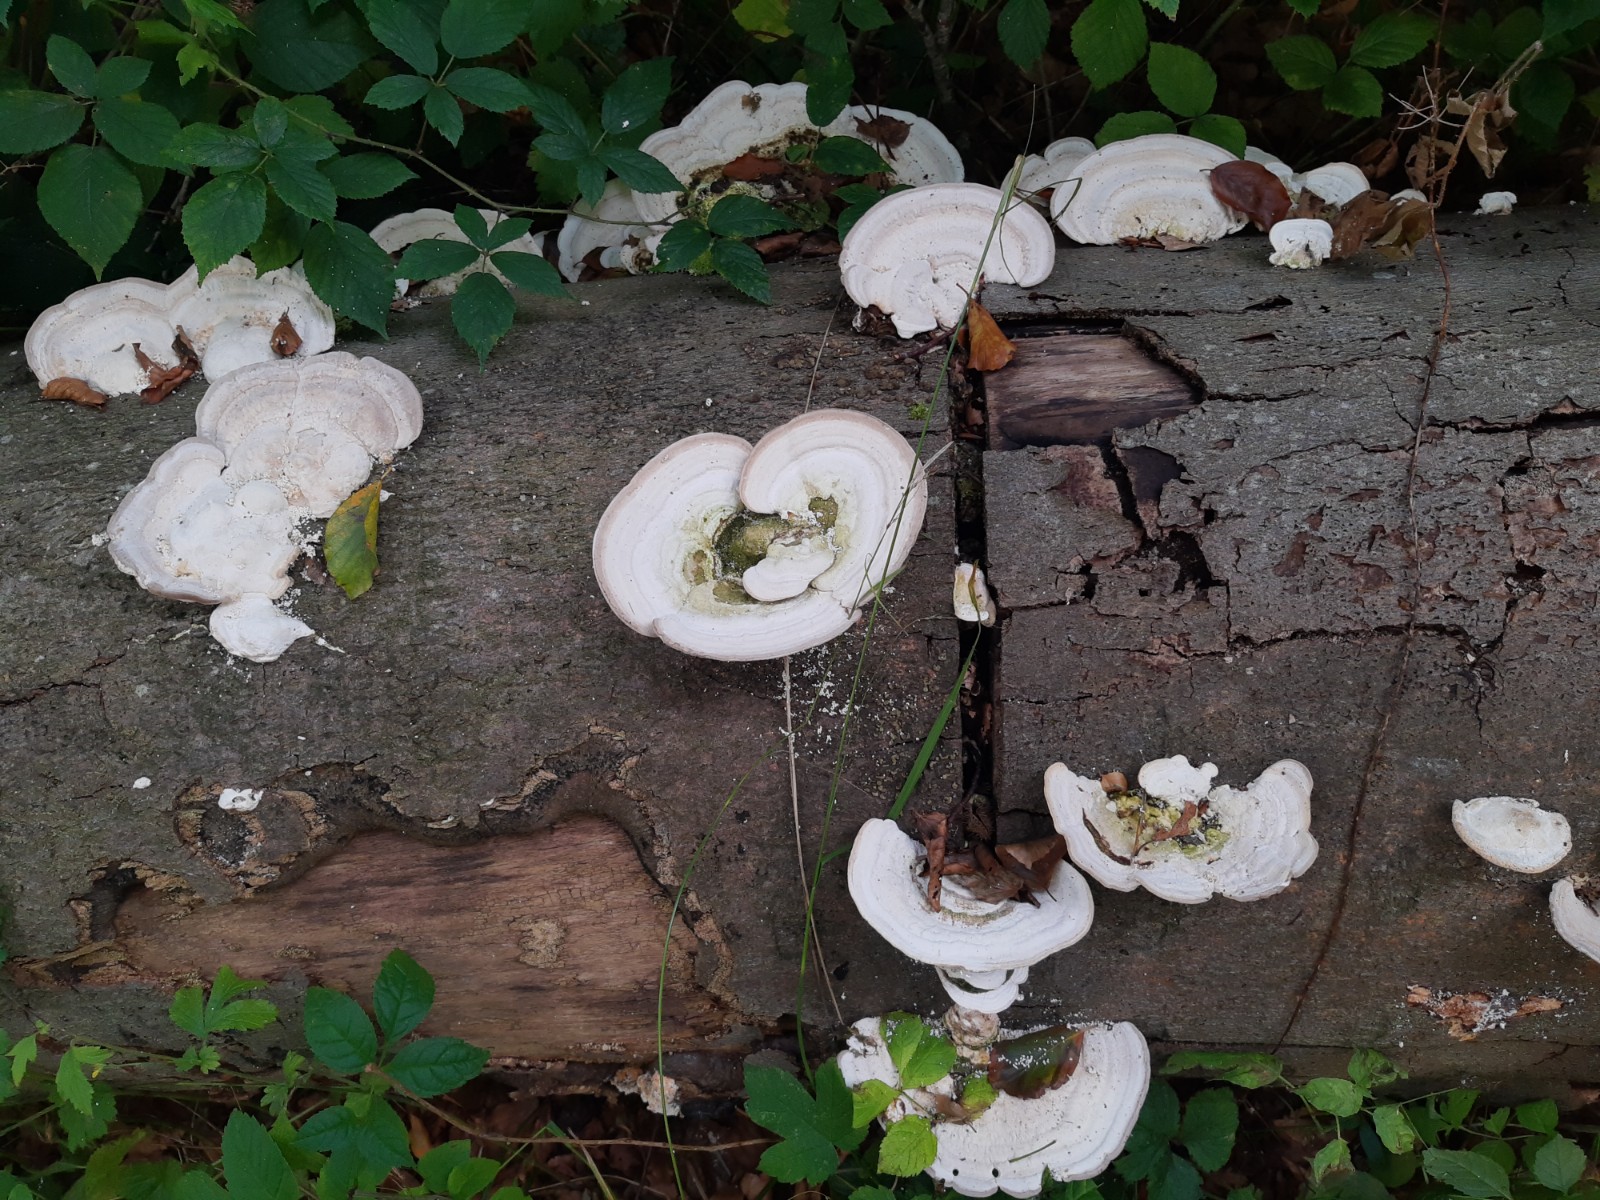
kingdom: Fungi
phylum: Basidiomycota
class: Agaricomycetes
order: Polyporales
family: Polyporaceae
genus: Trametes
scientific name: Trametes gibbosa
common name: puklet læderporesvamp
